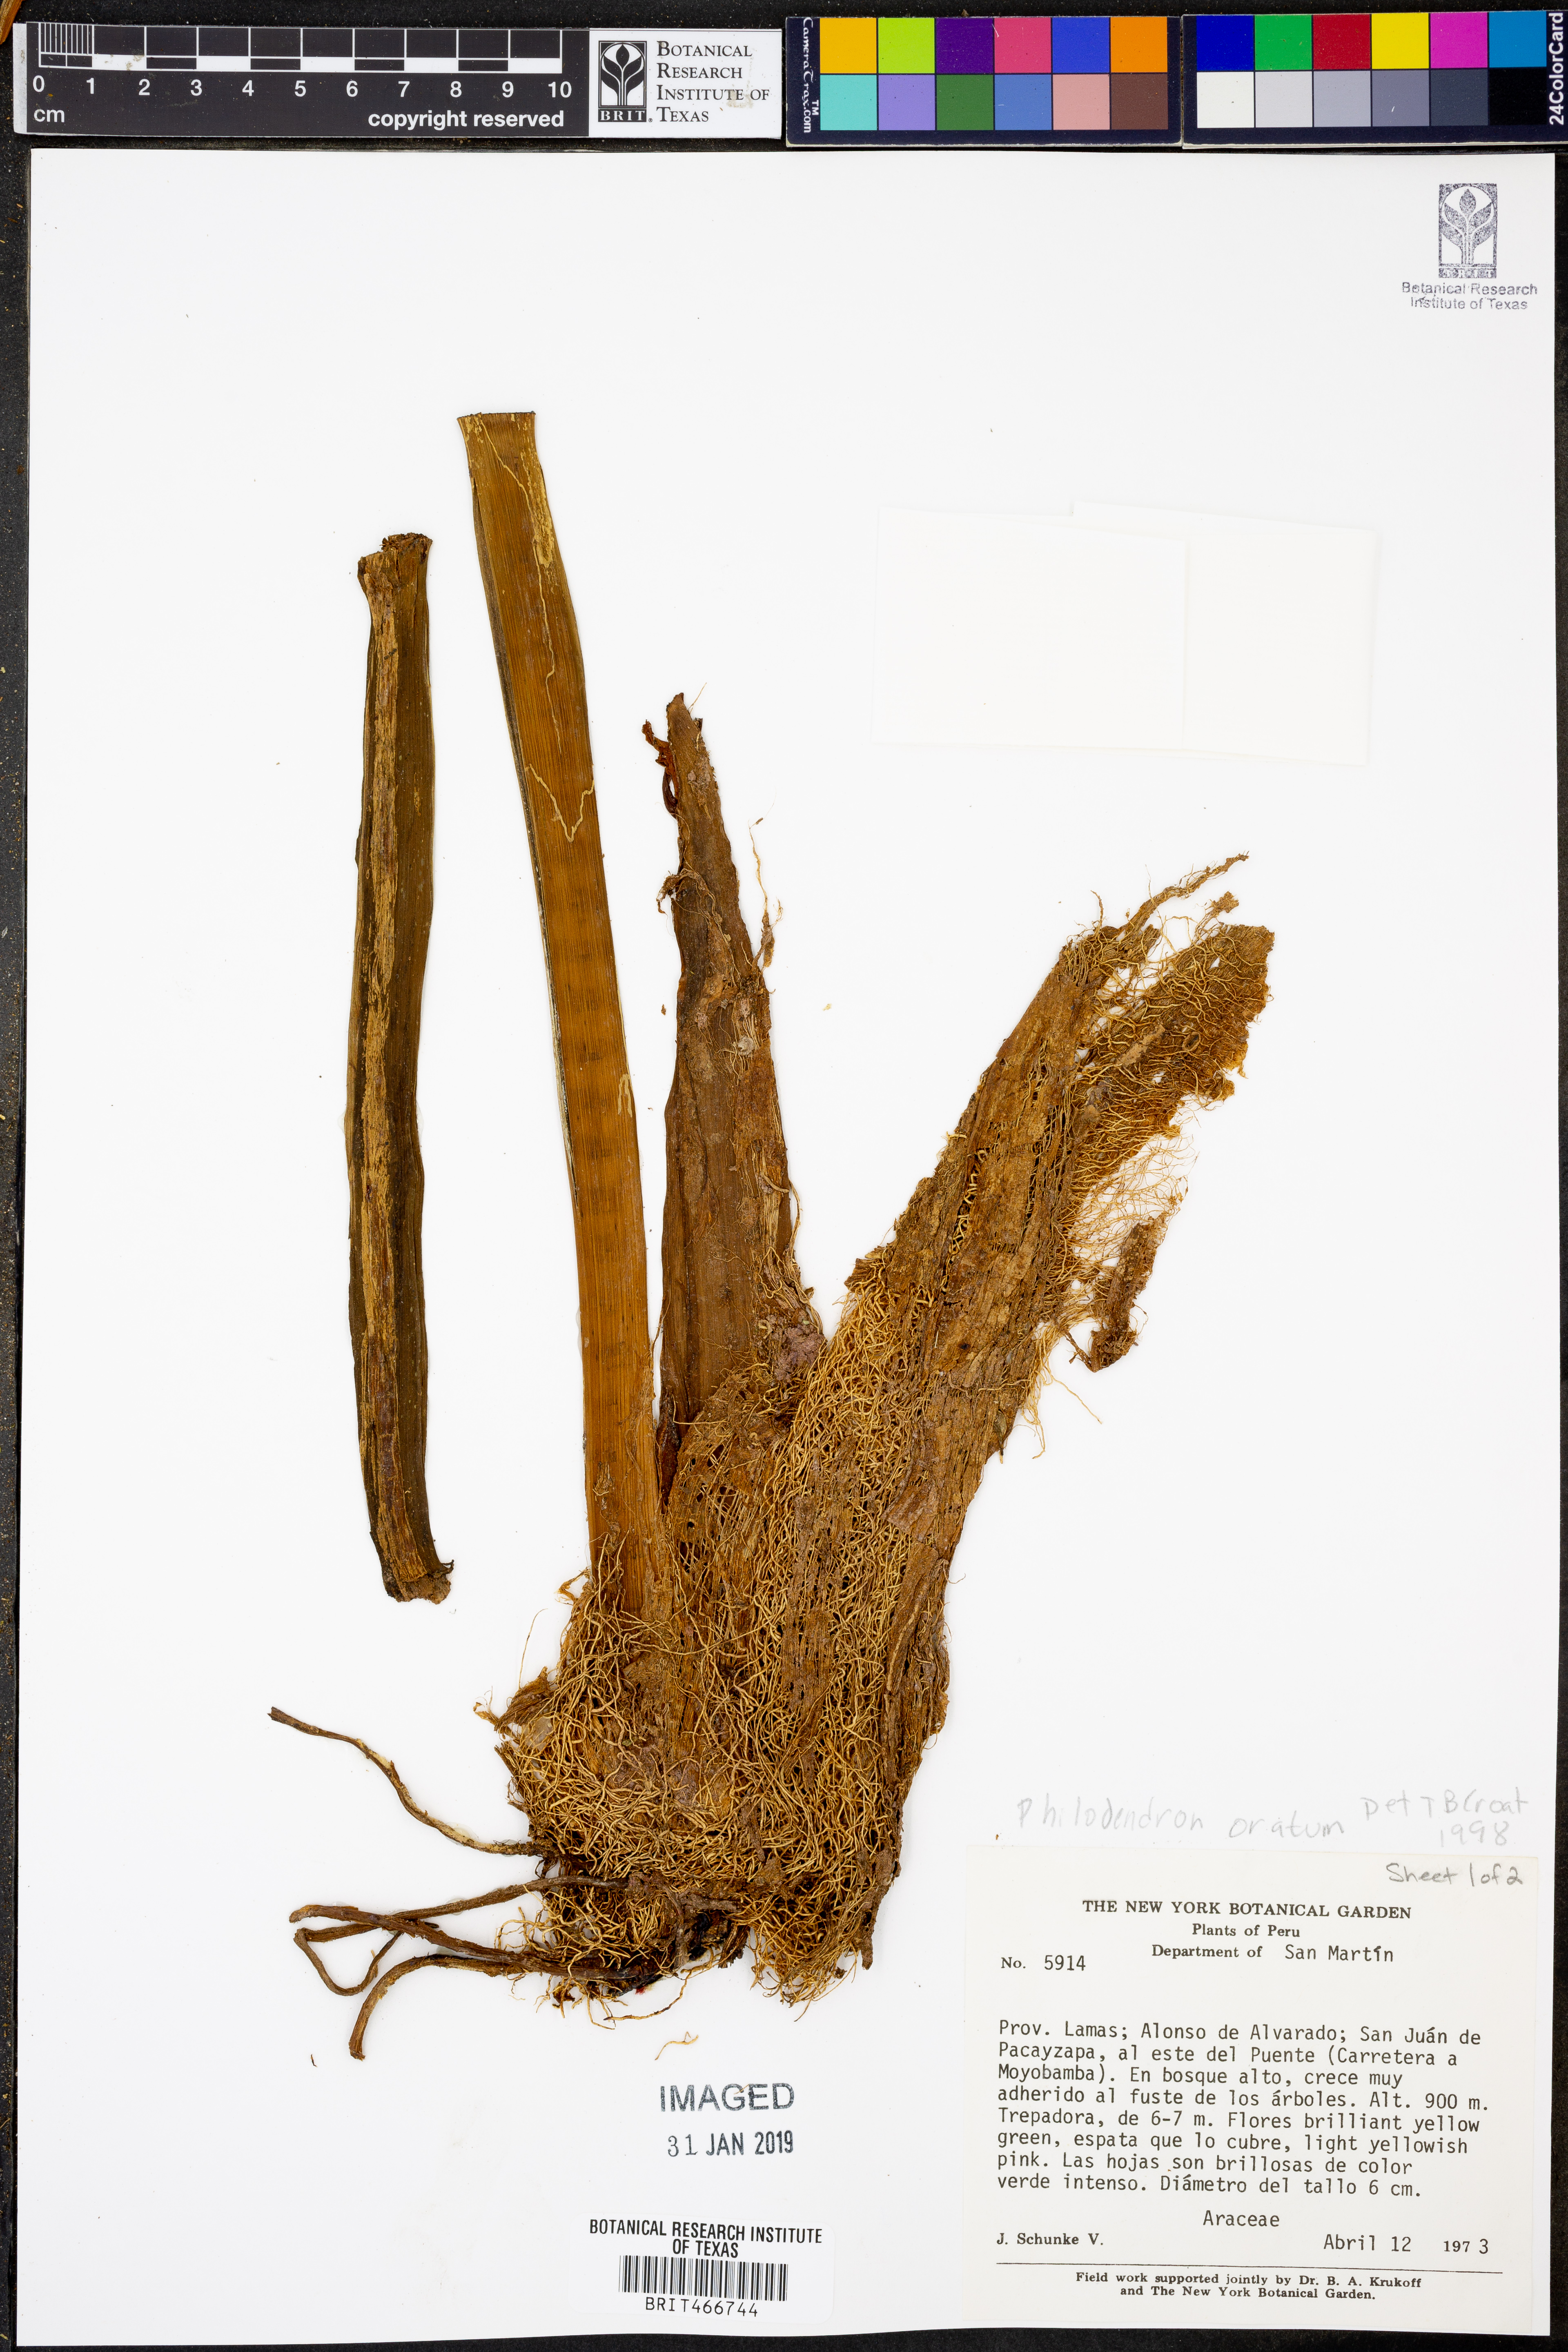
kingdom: Plantae
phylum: Tracheophyta
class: Liliopsida
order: Alismatales
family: Araceae
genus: Philodendron
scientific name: Philodendron ornatum
